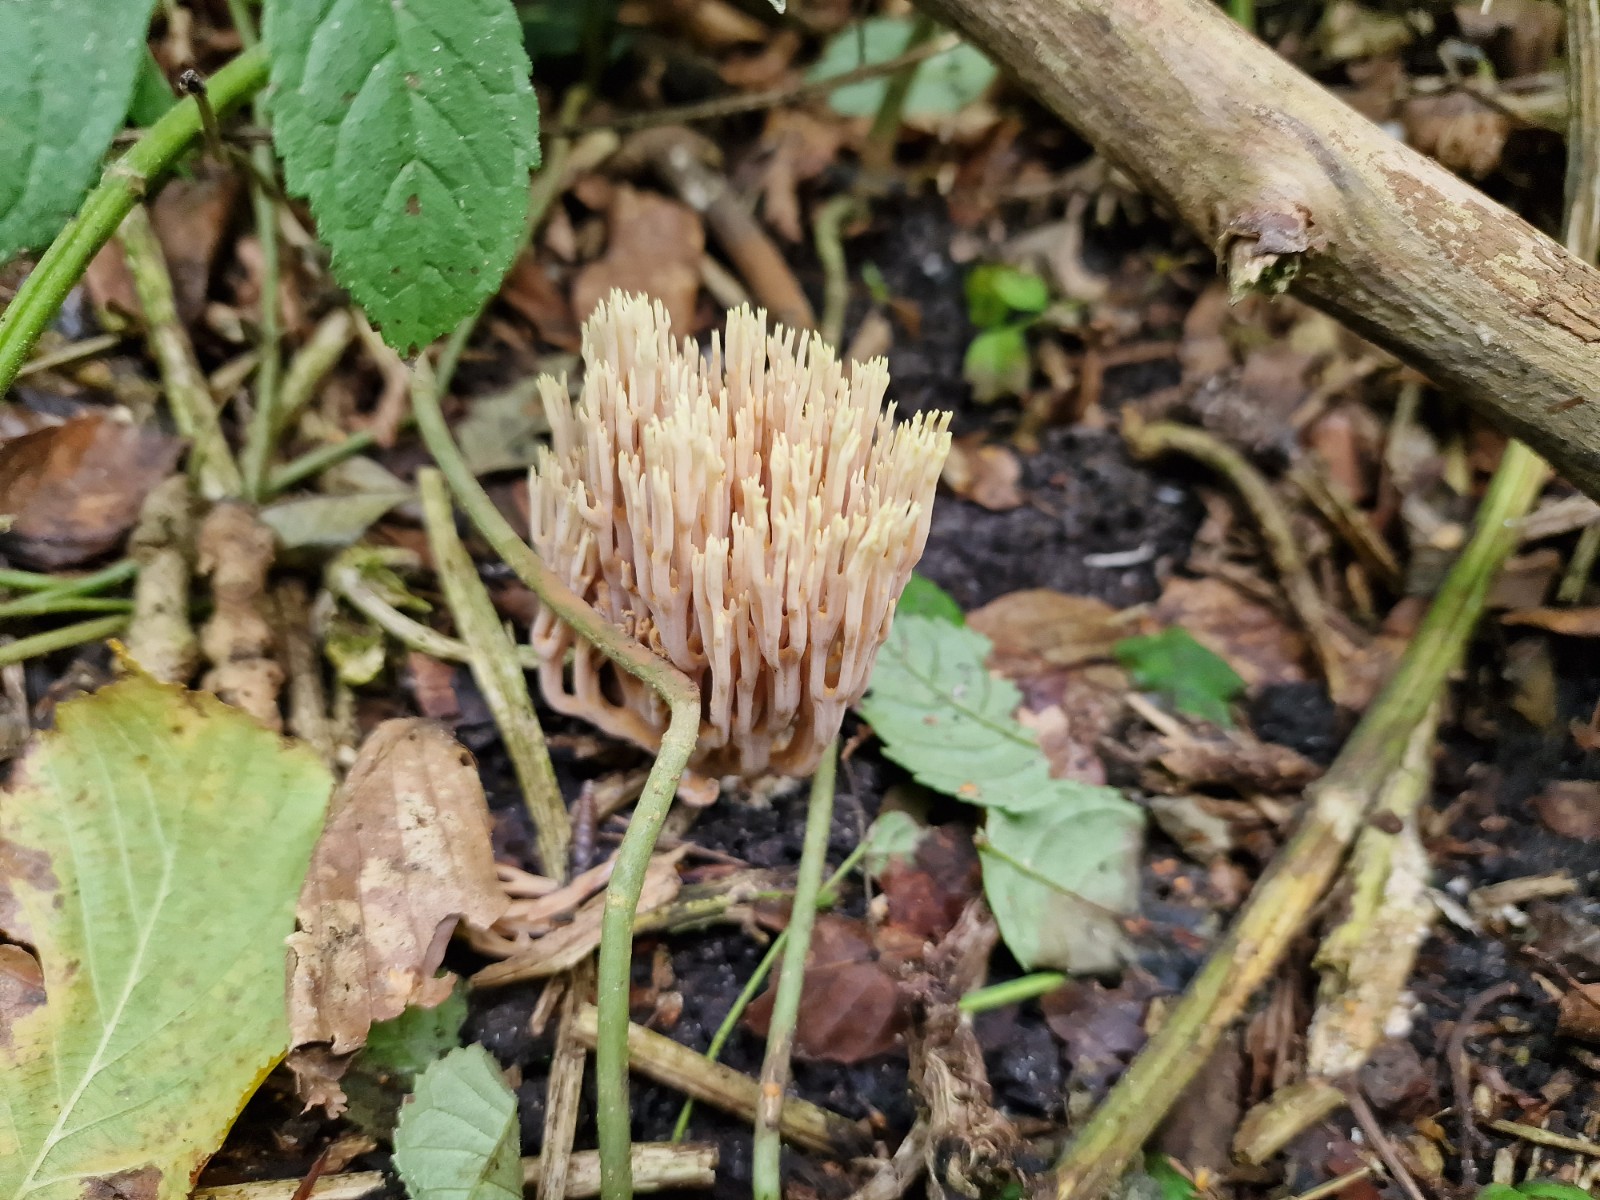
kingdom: Fungi
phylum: Basidiomycota
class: Agaricomycetes
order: Gomphales
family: Gomphaceae
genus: Ramaria
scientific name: Ramaria stricta
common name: rank koralsvamp
